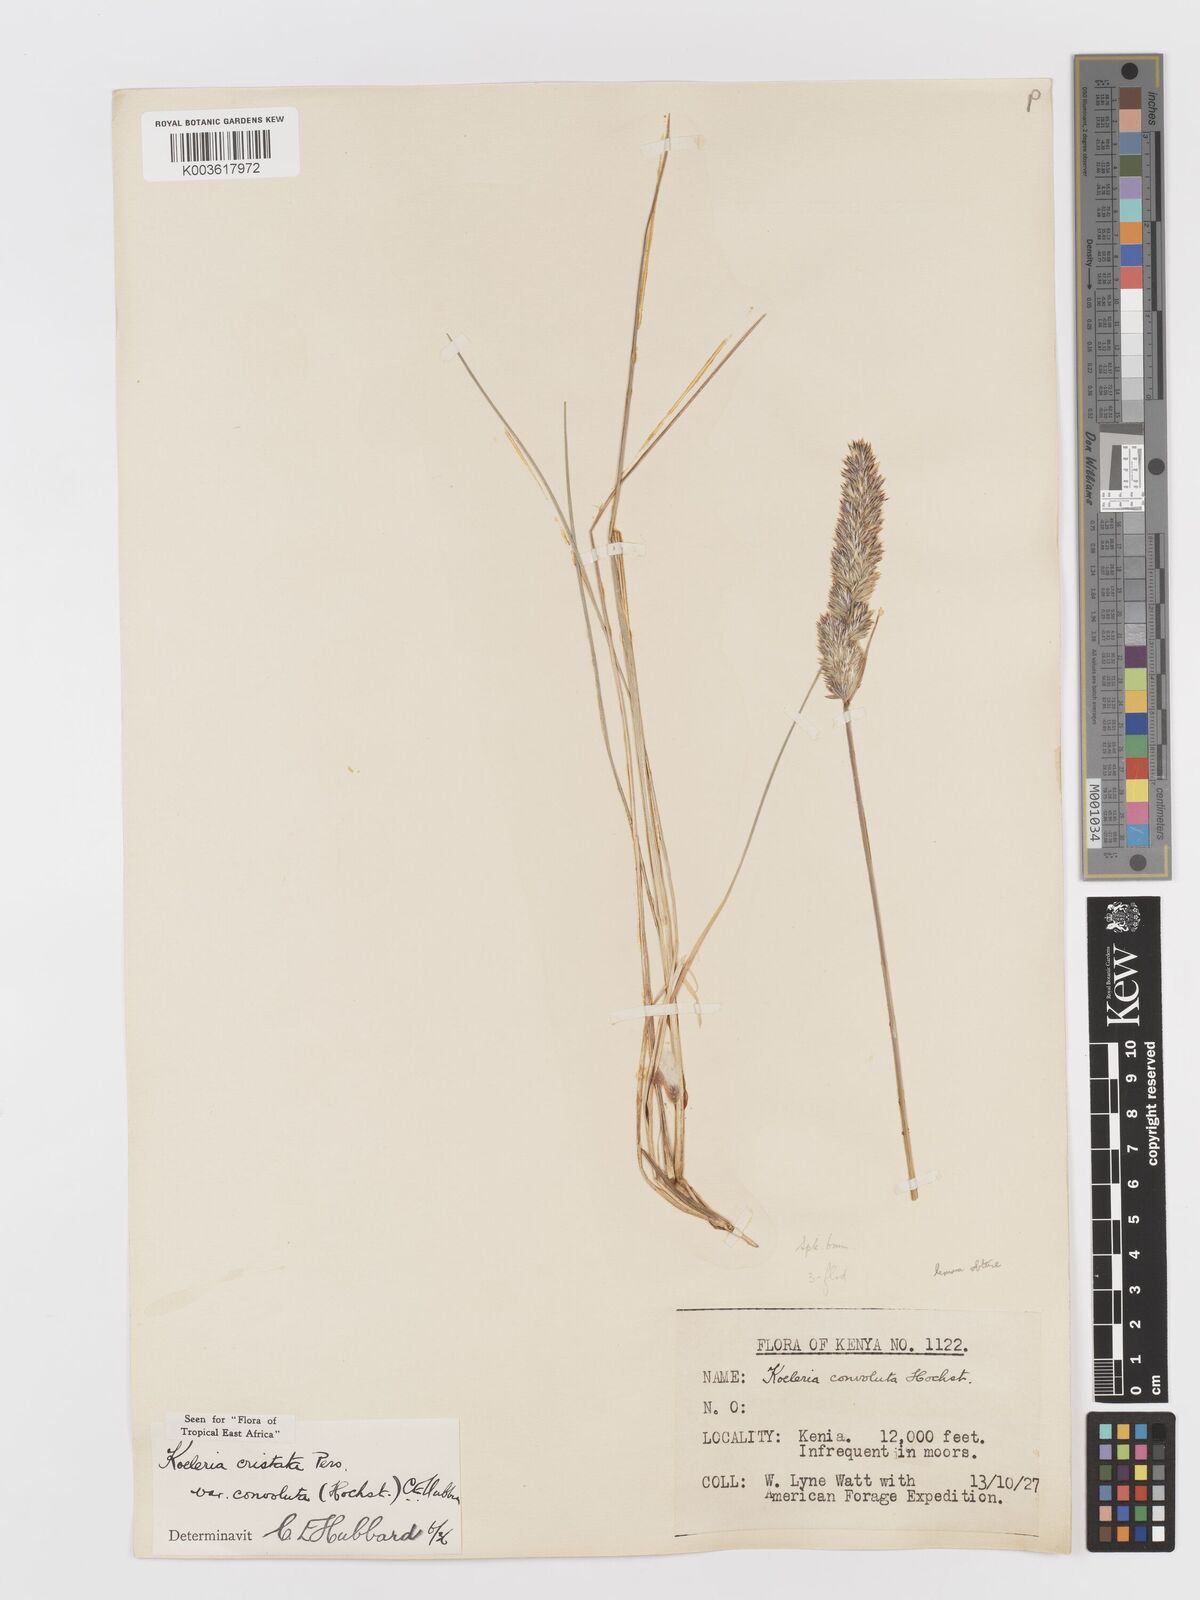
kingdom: Plantae
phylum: Tracheophyta
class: Liliopsida
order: Poales
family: Poaceae
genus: Koeleria
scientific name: Koeleria capensis
